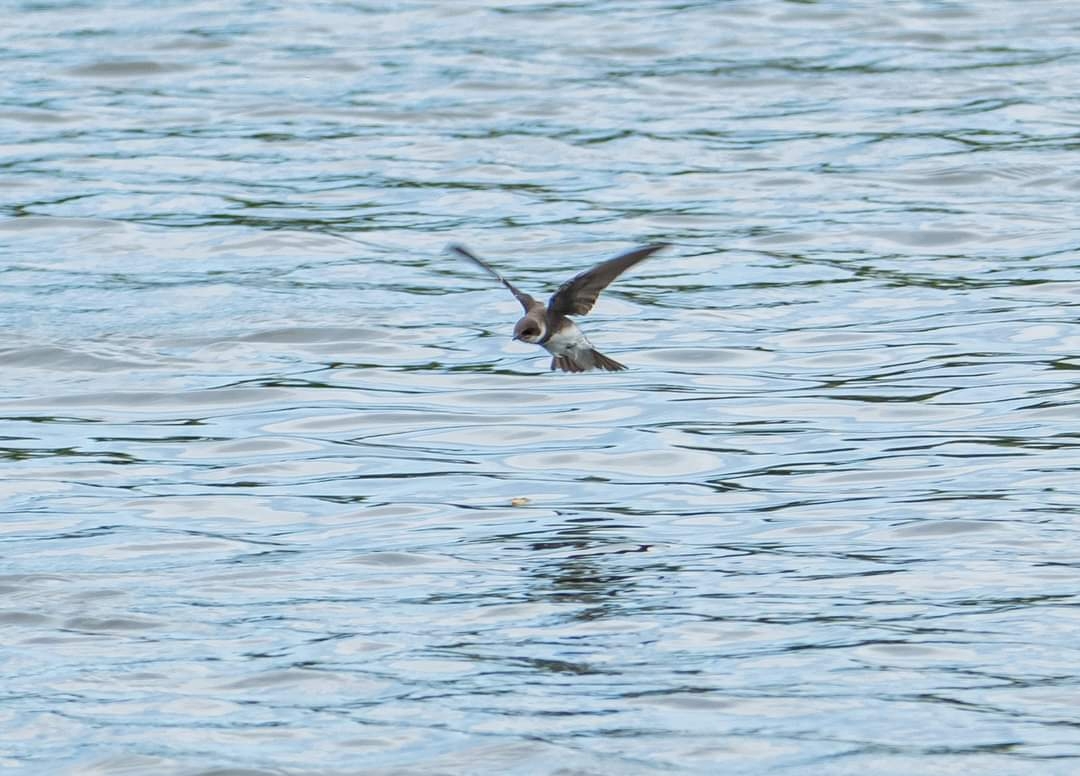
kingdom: Animalia
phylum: Chordata
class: Aves
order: Passeriformes
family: Hirundinidae
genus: Riparia
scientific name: Riparia riparia
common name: Digesvale
